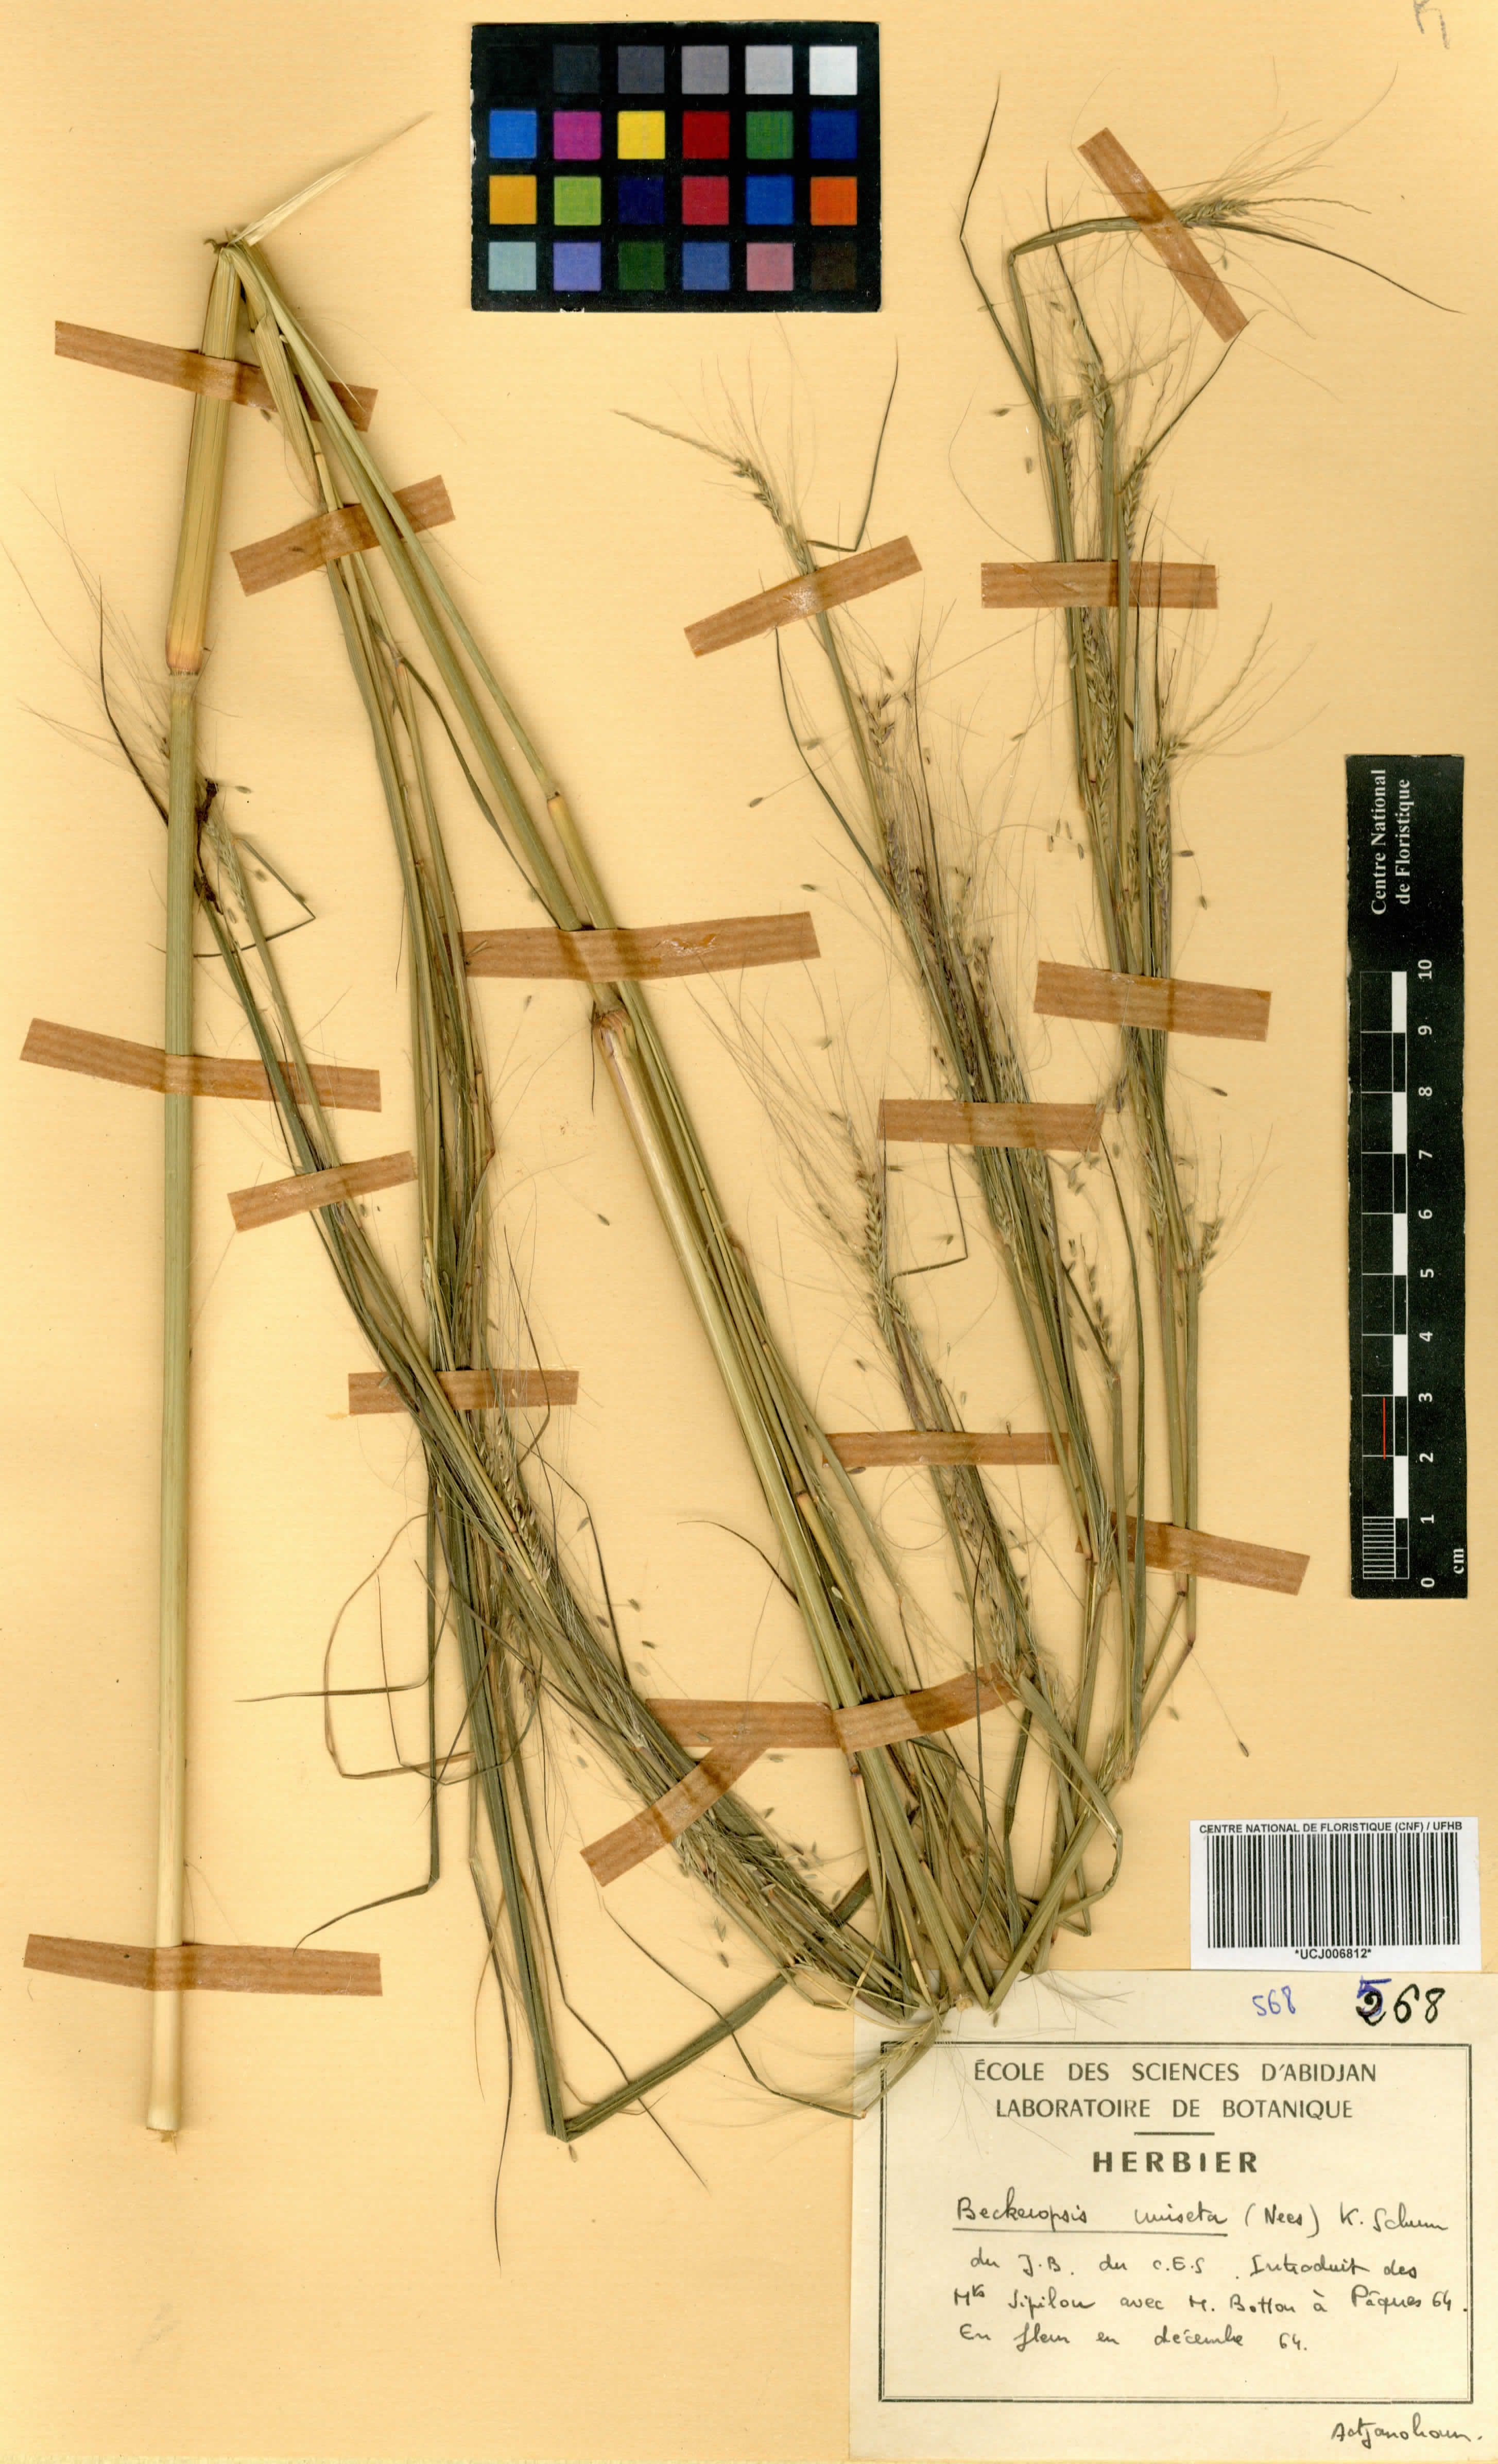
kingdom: Plantae
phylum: Tracheophyta
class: Liliopsida
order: Poales
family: Poaceae
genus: Cenchrus
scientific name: Cenchrus unisetus
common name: Natal grass
